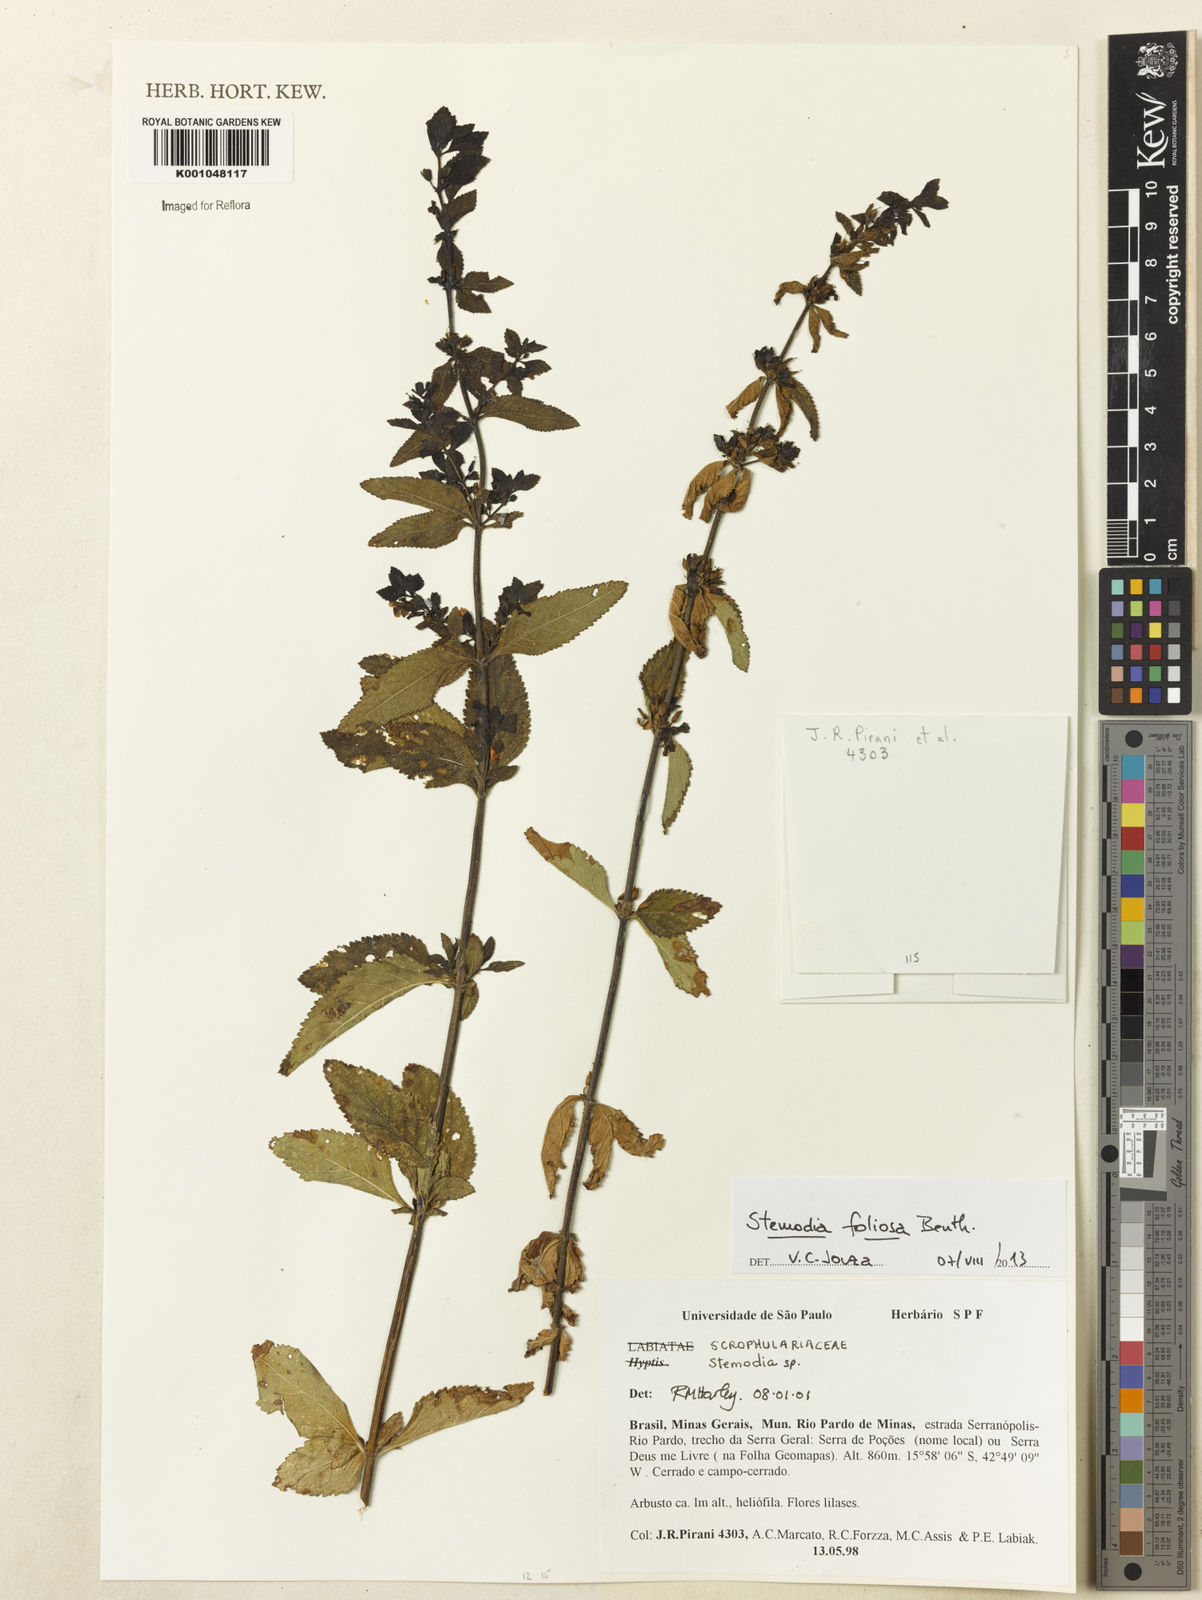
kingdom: Plantae
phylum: Tracheophyta
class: Magnoliopsida
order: Lamiales
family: Plantaginaceae
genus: Stemodia
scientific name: Stemodia foliosa
